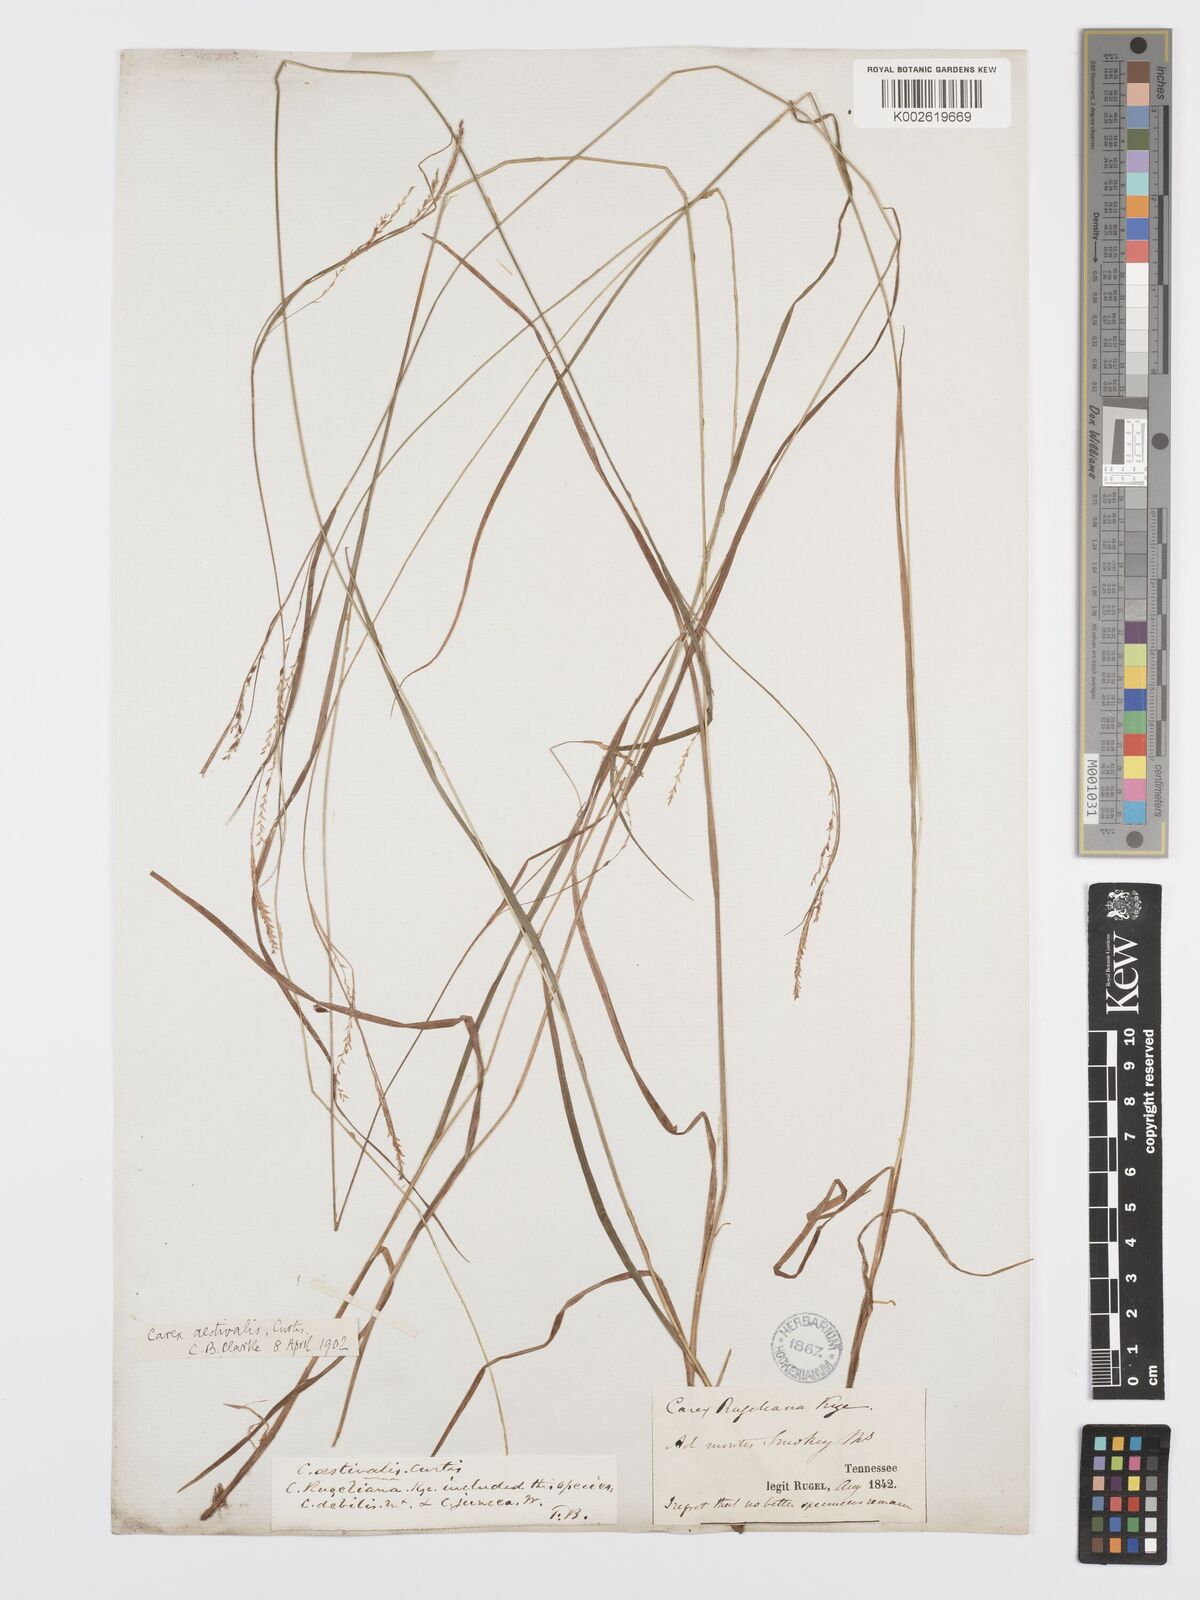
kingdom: Plantae
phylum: Tracheophyta
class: Liliopsida
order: Poales
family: Cyperaceae
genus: Carex
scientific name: Carex aestivalis
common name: Summer sedge
